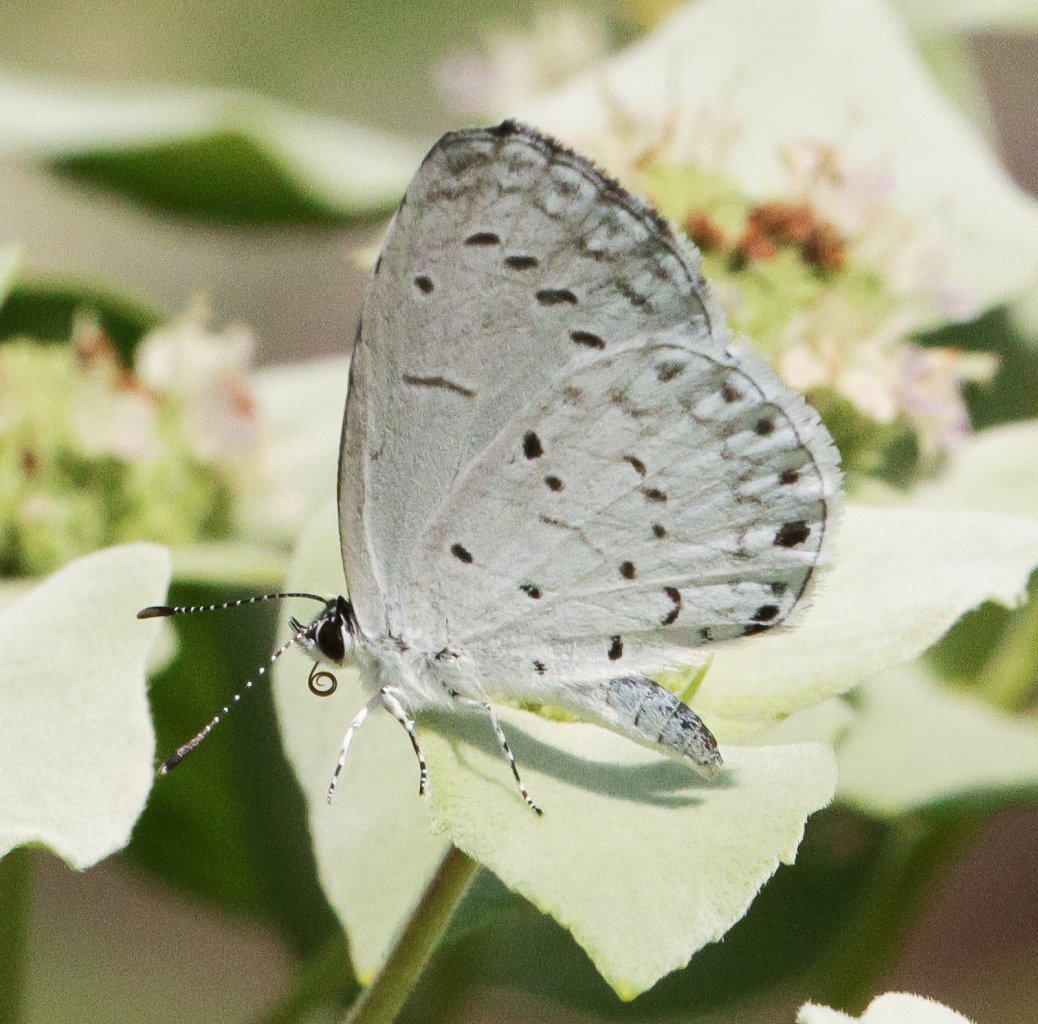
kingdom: Animalia
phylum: Arthropoda
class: Insecta
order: Lepidoptera
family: Lycaenidae
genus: Cyaniris
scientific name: Cyaniris neglecta
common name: Summer Azure
